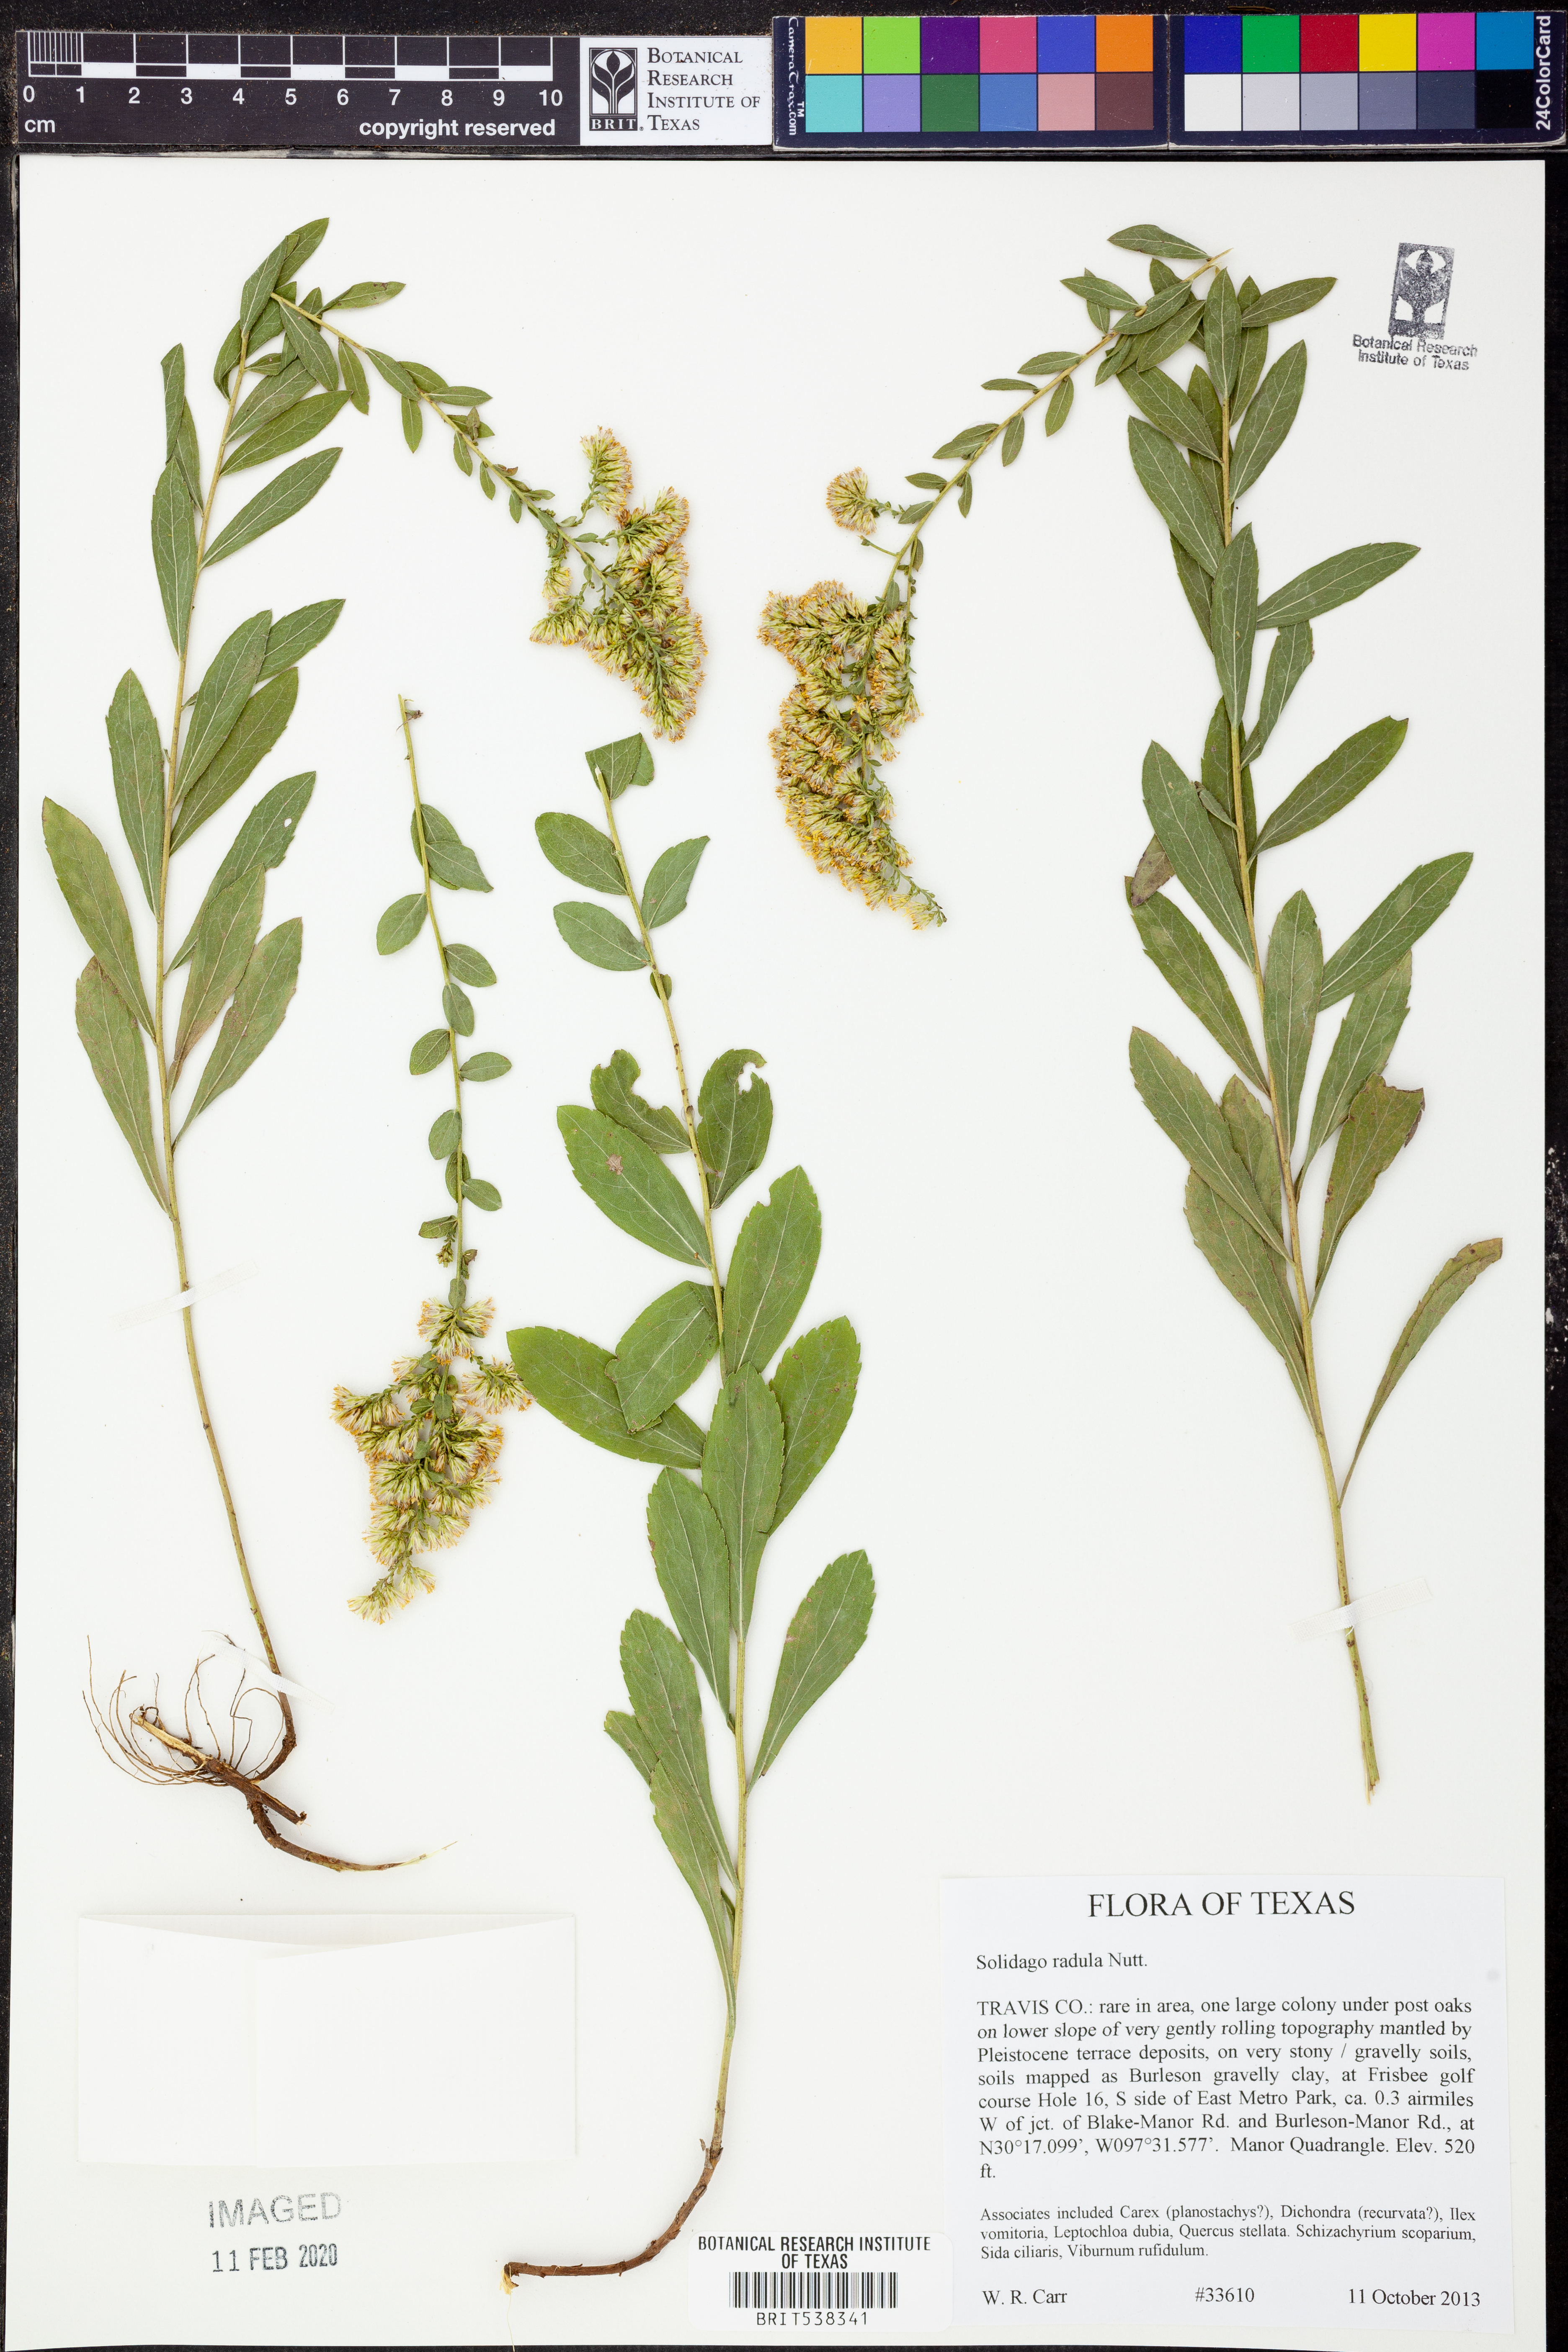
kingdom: Plantae
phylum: Tracheophyta
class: Magnoliopsida
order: Asterales
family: Asteraceae
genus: Solidago
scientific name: Solidago radula
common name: Western rough goldenrod
